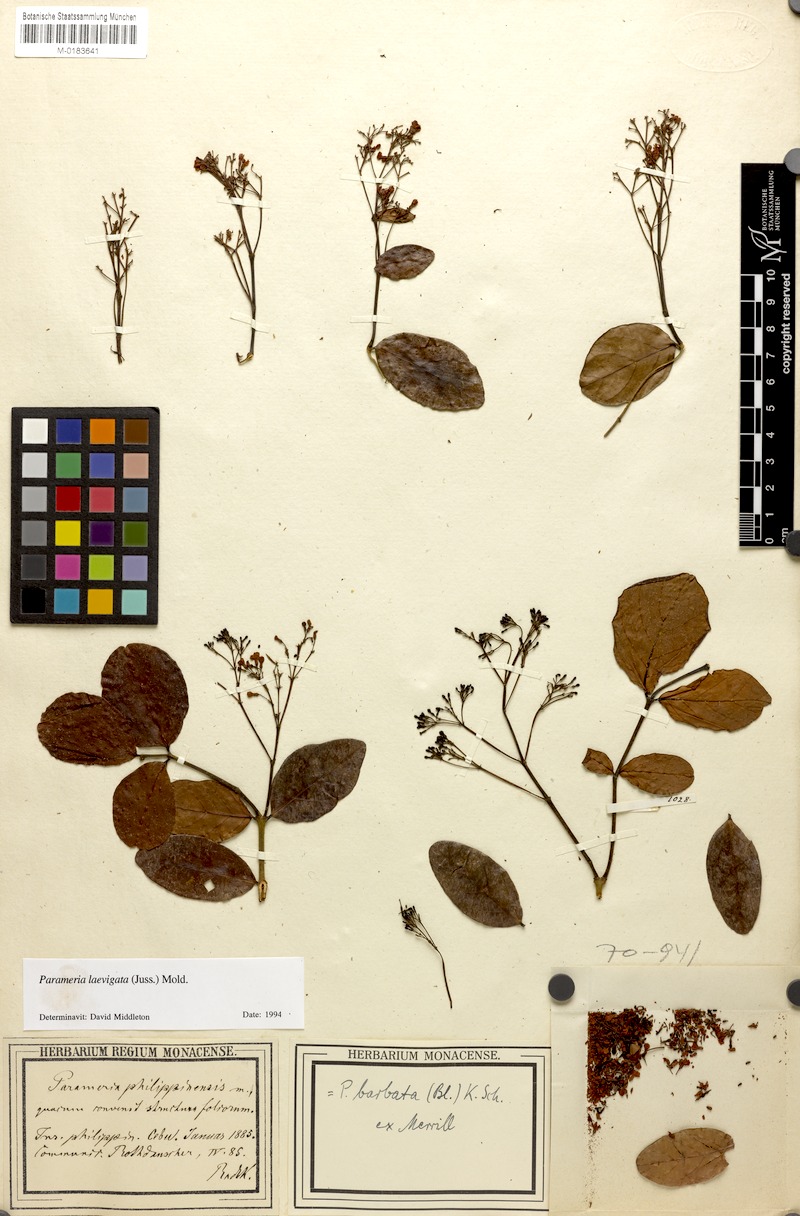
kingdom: Plantae
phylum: Tracheophyta
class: Magnoliopsida
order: Gentianales
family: Apocynaceae
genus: Urceola
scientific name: Urceola laevigata
